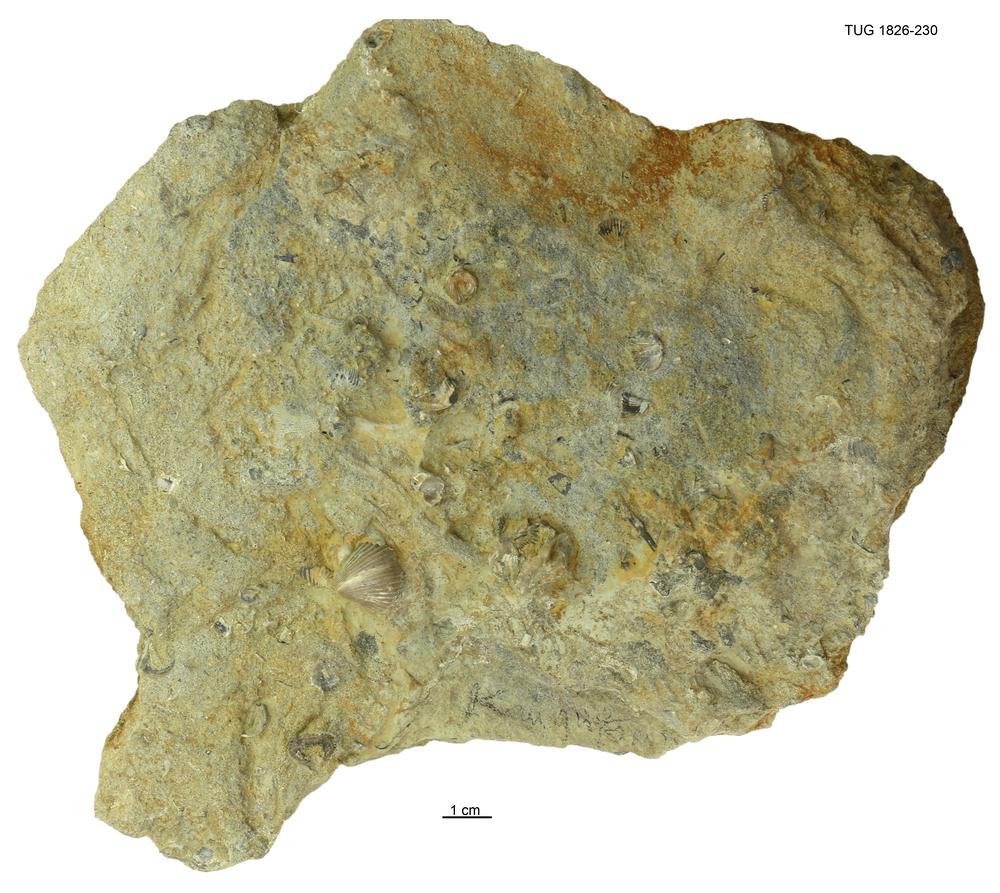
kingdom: Chromista
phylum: Ochrophyta
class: Phaeophyceae
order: Laminariales
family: Laminariaceae
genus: Postelsiopsis
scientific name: Postelsiopsis
